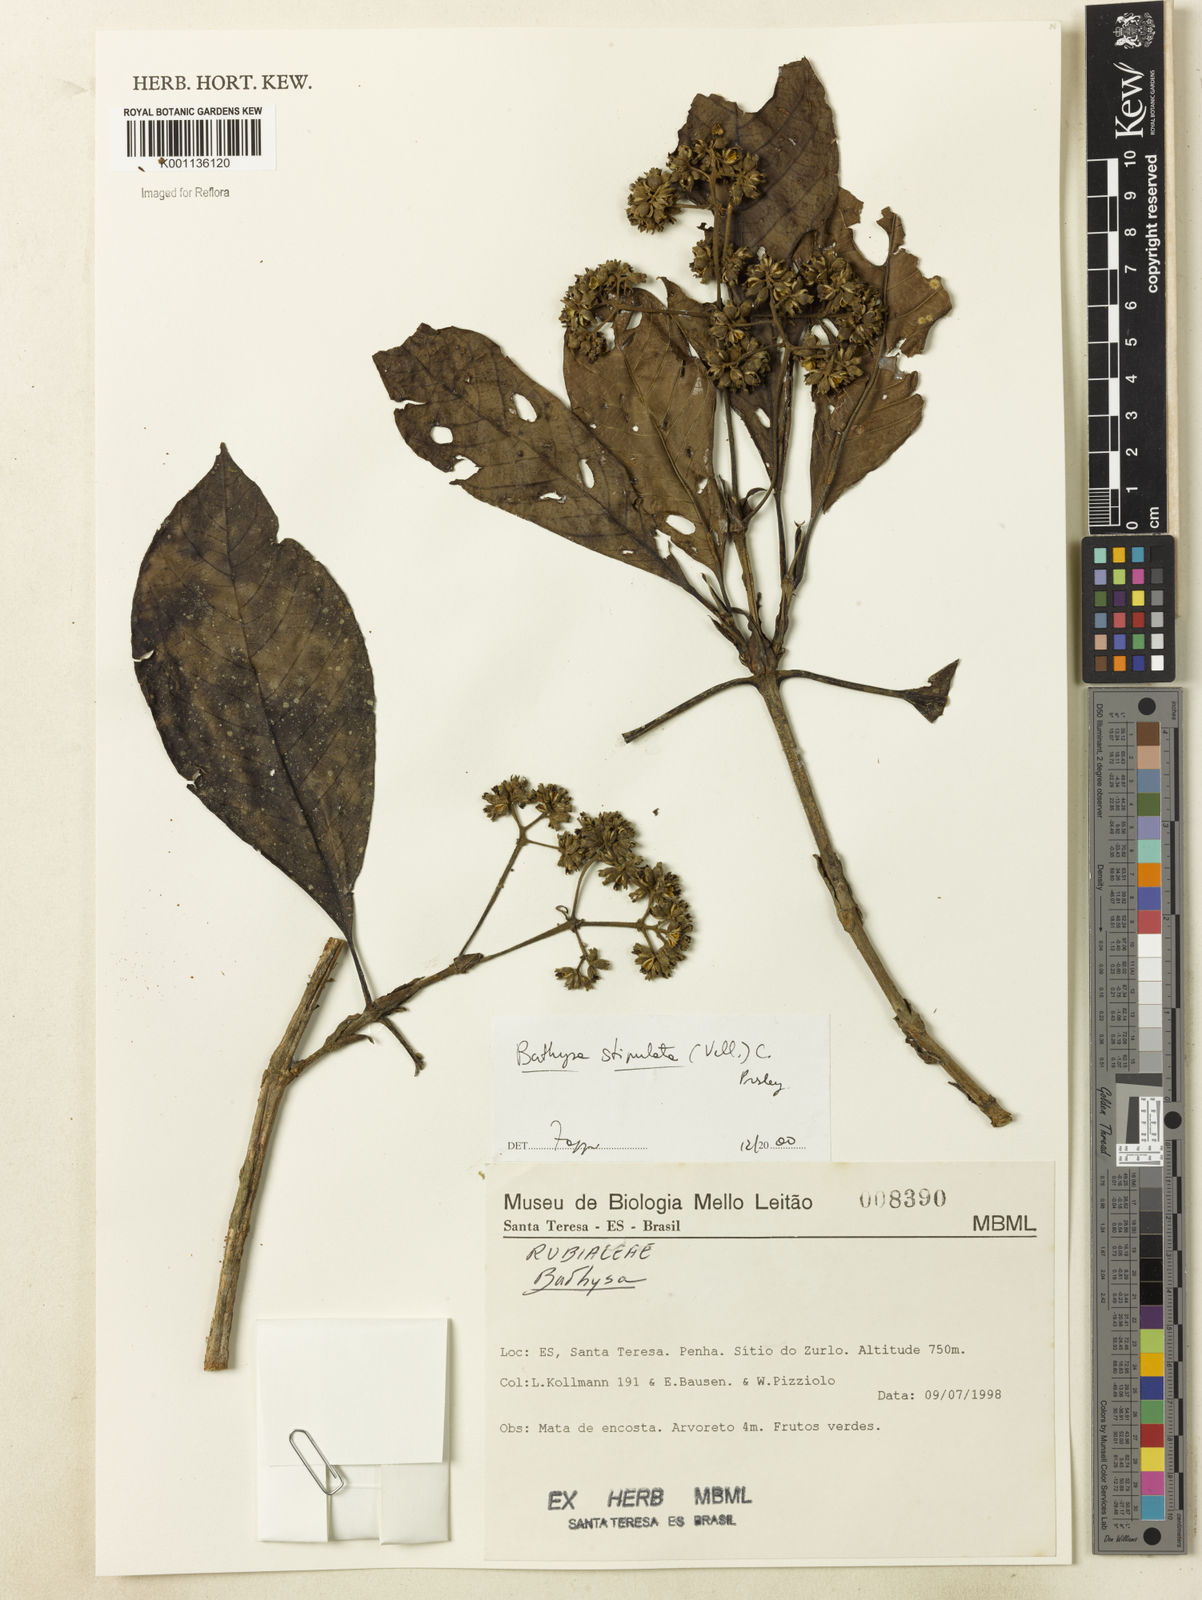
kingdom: Plantae
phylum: Tracheophyta
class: Magnoliopsida
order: Gentianales
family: Rubiaceae
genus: Bathysa
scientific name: Bathysa stipulata
